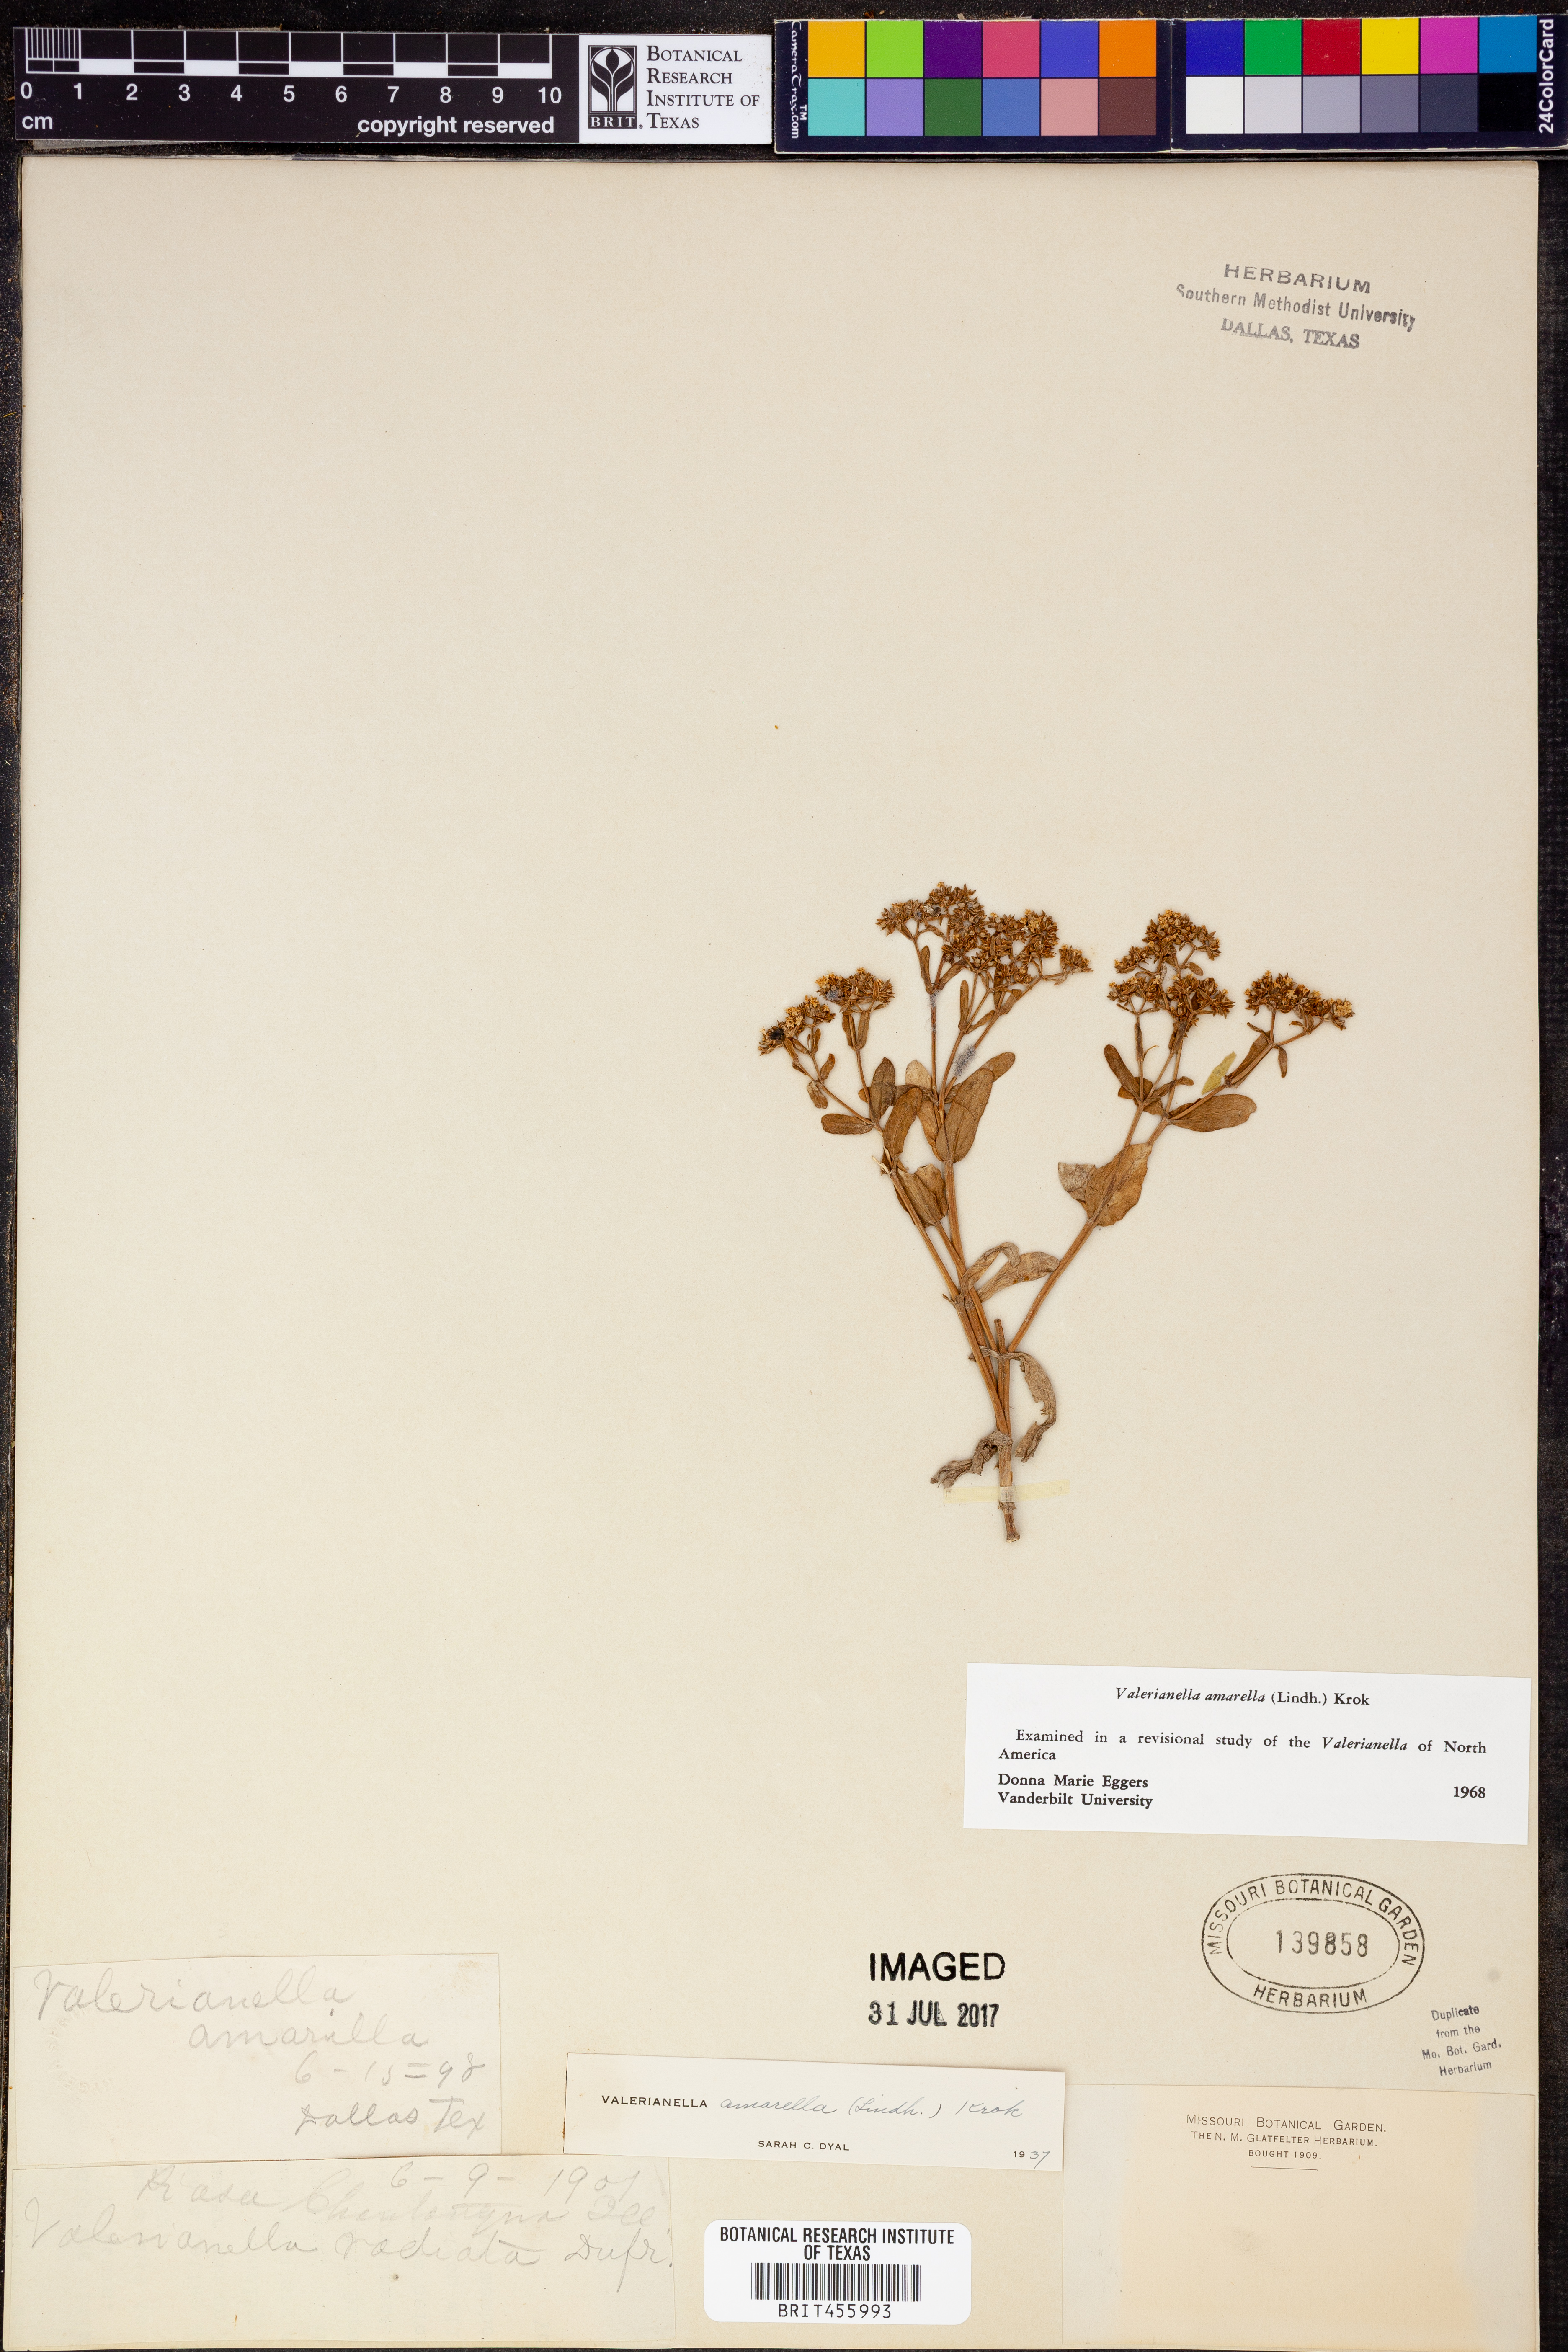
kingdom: Plantae
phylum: Tracheophyta
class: Magnoliopsida
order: Dipsacales
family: Caprifoliaceae
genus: Valerianella
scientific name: Valerianella amarella
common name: Hariy cornsalad
